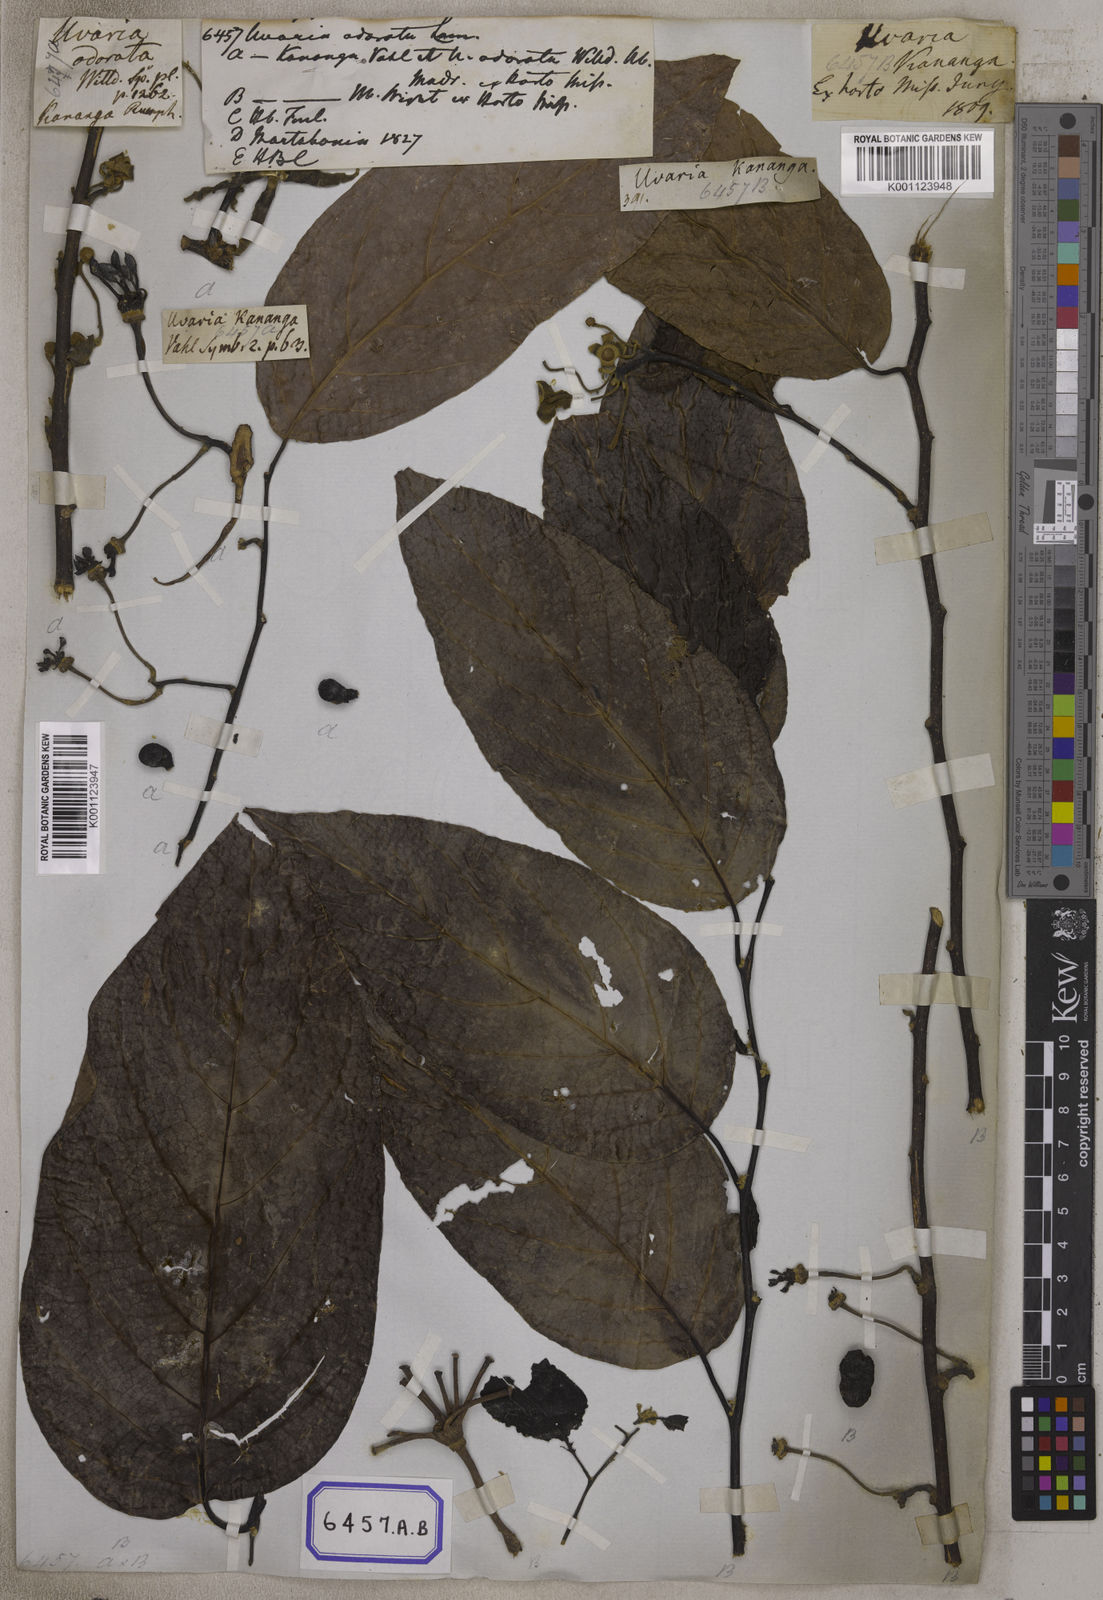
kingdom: Plantae
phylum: Tracheophyta
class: Magnoliopsida
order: Magnoliales
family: Annonaceae
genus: Uvaria
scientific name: Uvaria
